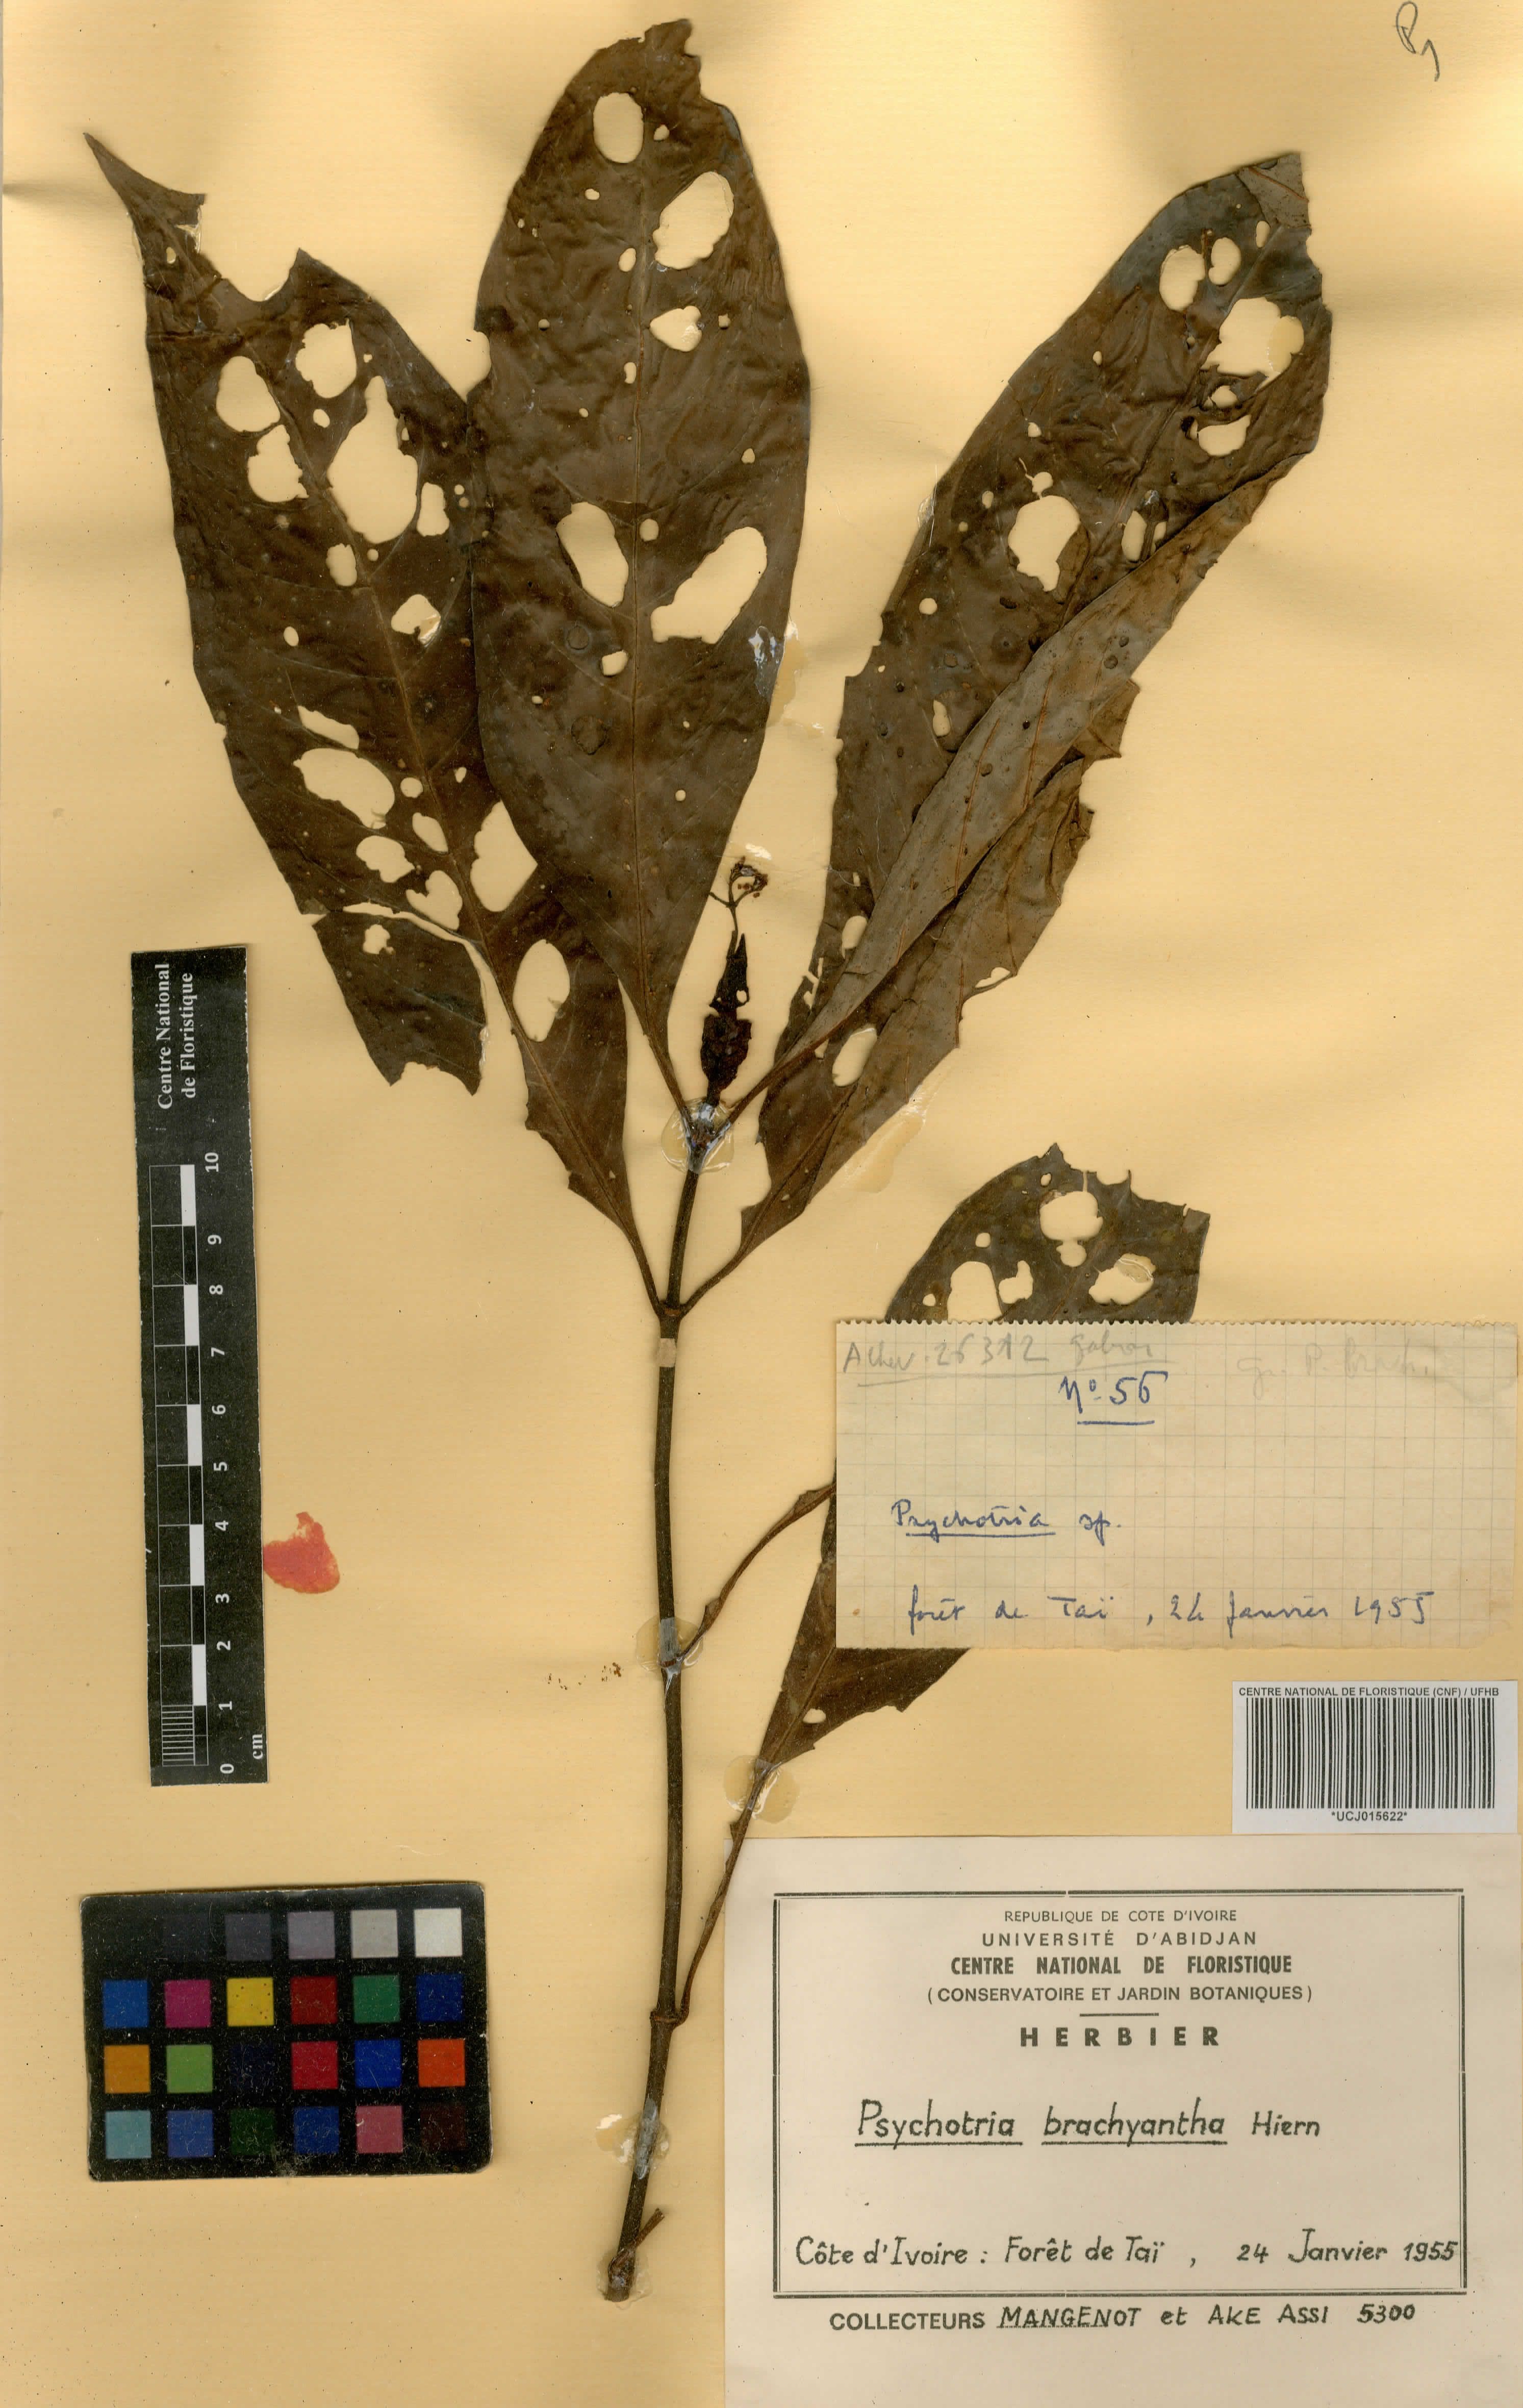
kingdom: Plantae
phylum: Tracheophyta
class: Magnoliopsida
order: Gentianales
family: Rubiaceae
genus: Psychotria
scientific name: Psychotria brachyantha
